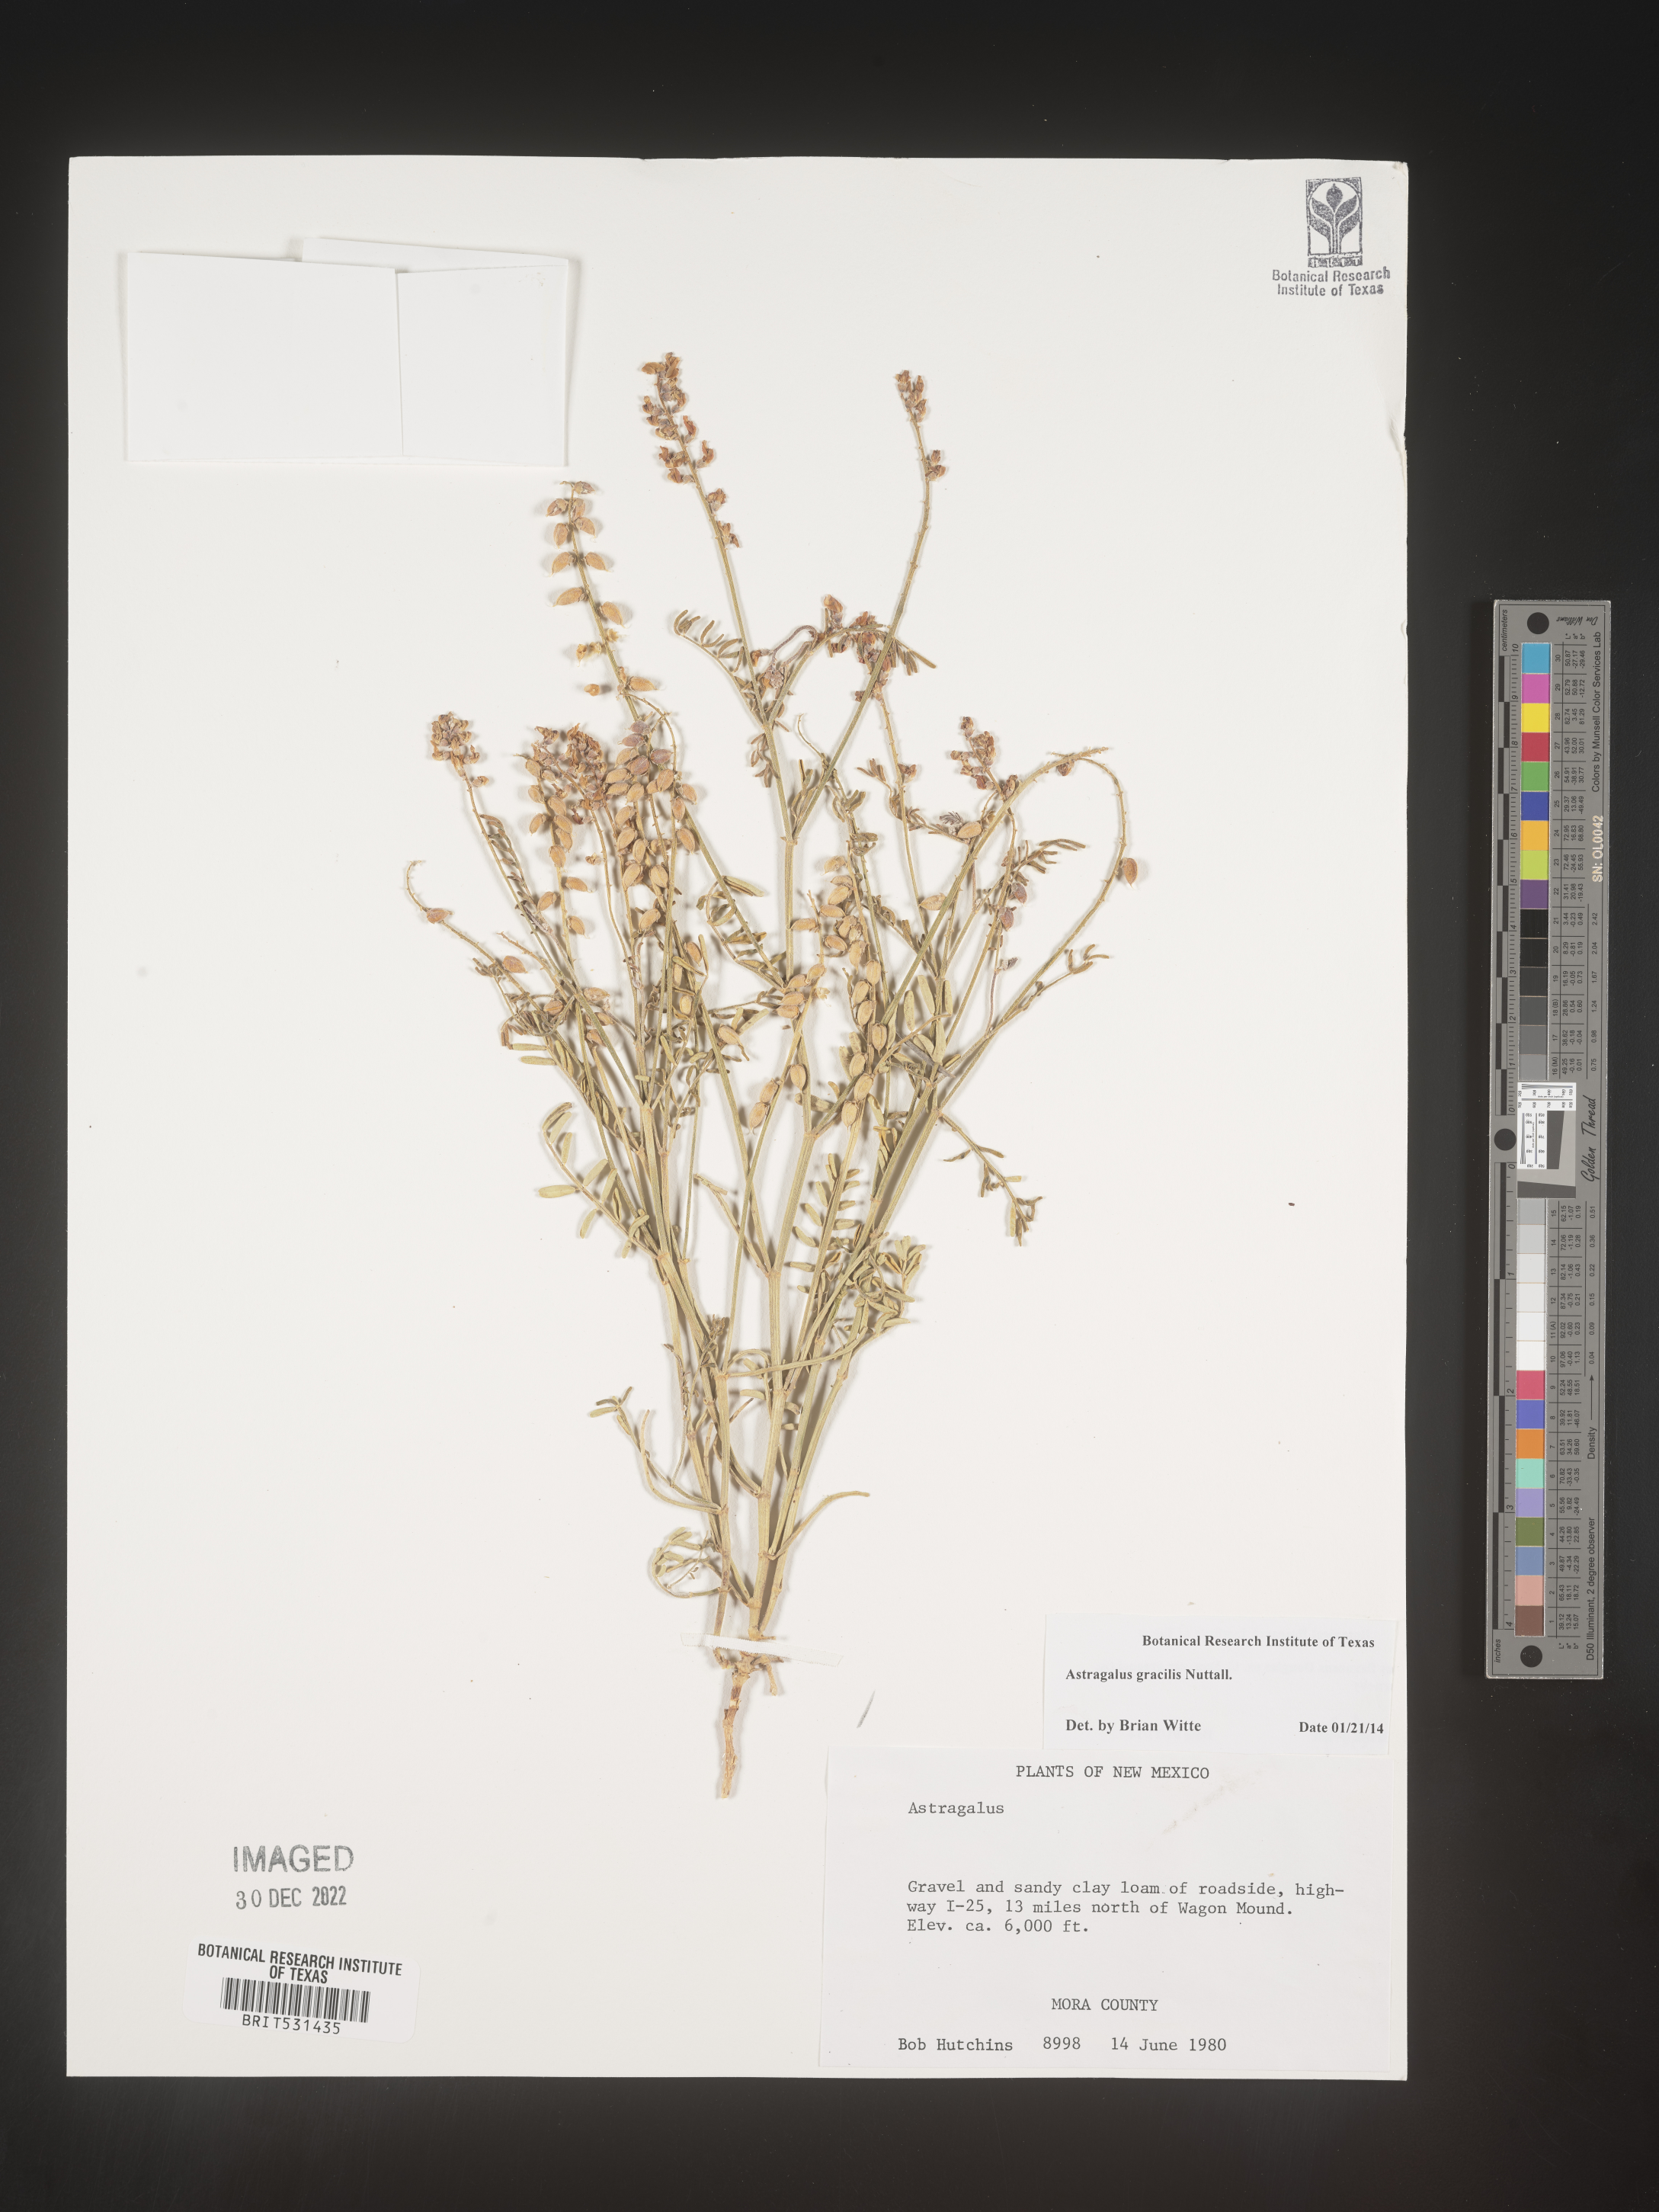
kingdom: Plantae
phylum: Tracheophyta
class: Magnoliopsida
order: Fabales
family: Fabaceae
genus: Astragalus
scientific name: Astragalus gracilis
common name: Slender milk-vetch
